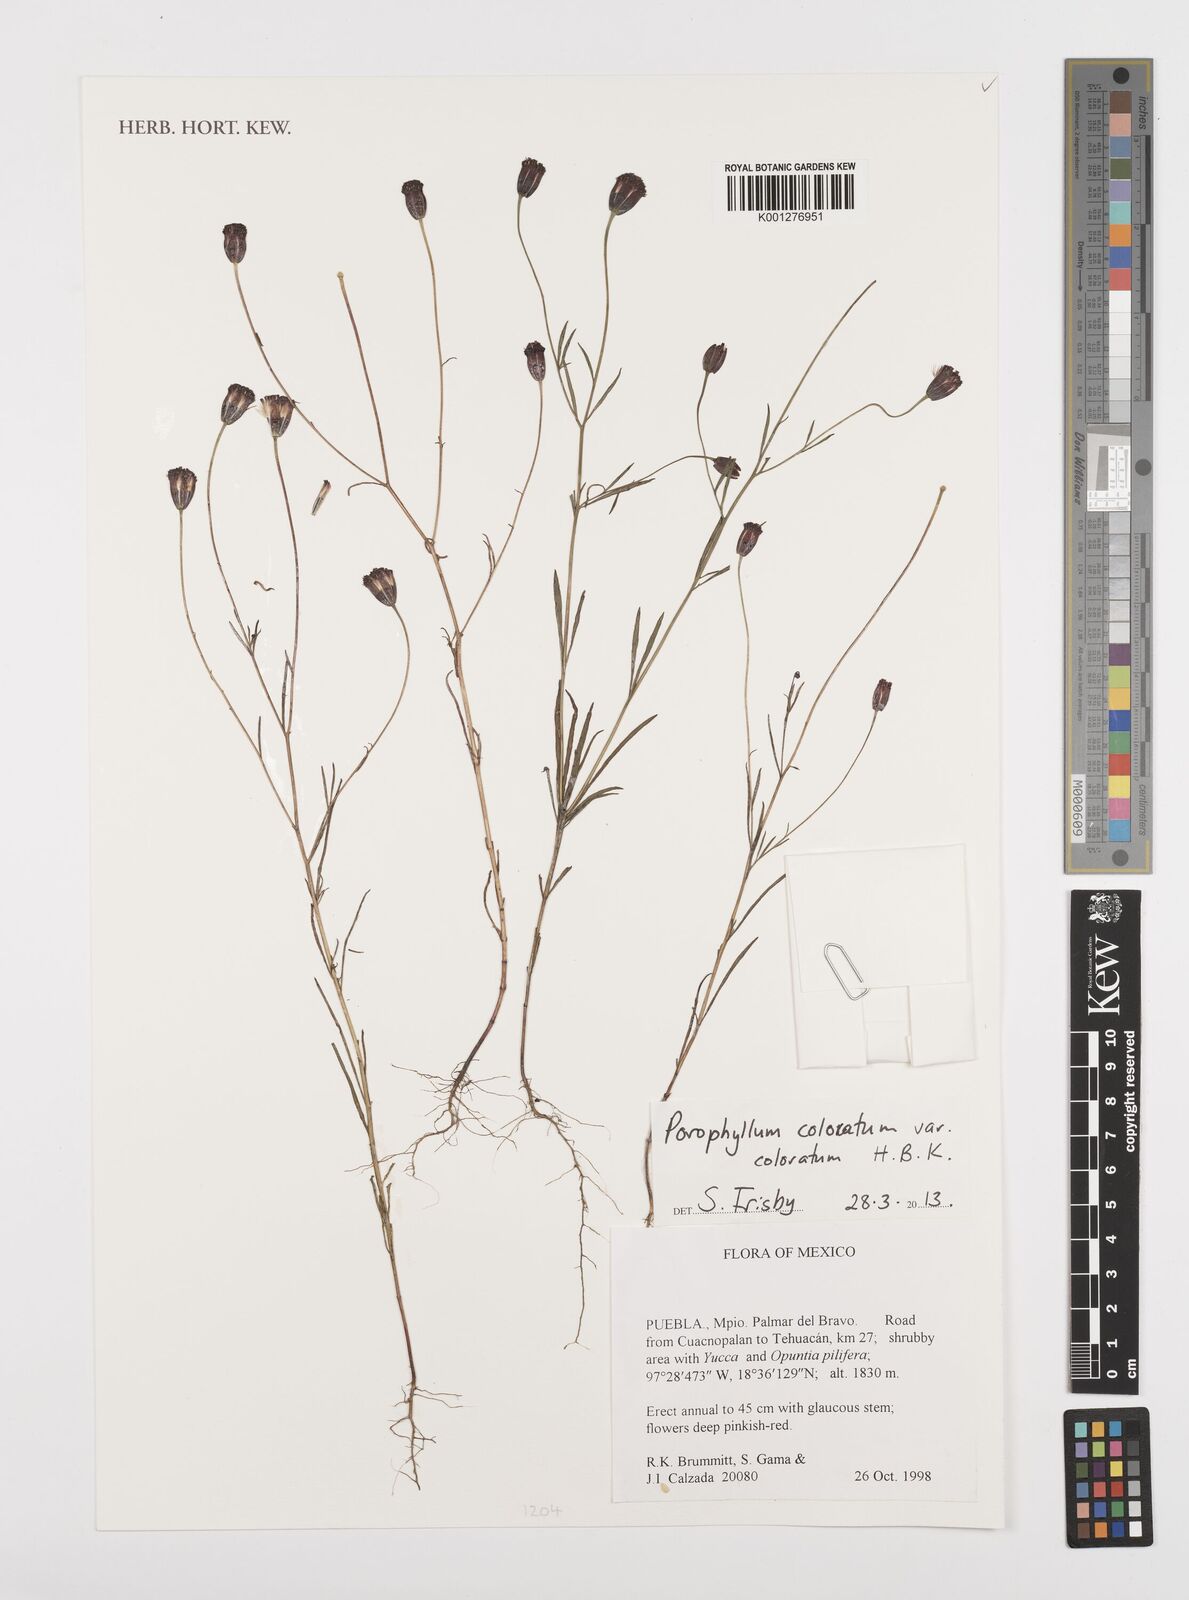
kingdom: Plantae
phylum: Tracheophyta
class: Magnoliopsida
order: Asterales
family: Asteraceae
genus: Porophyllum
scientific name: Porophyllum coloratum
